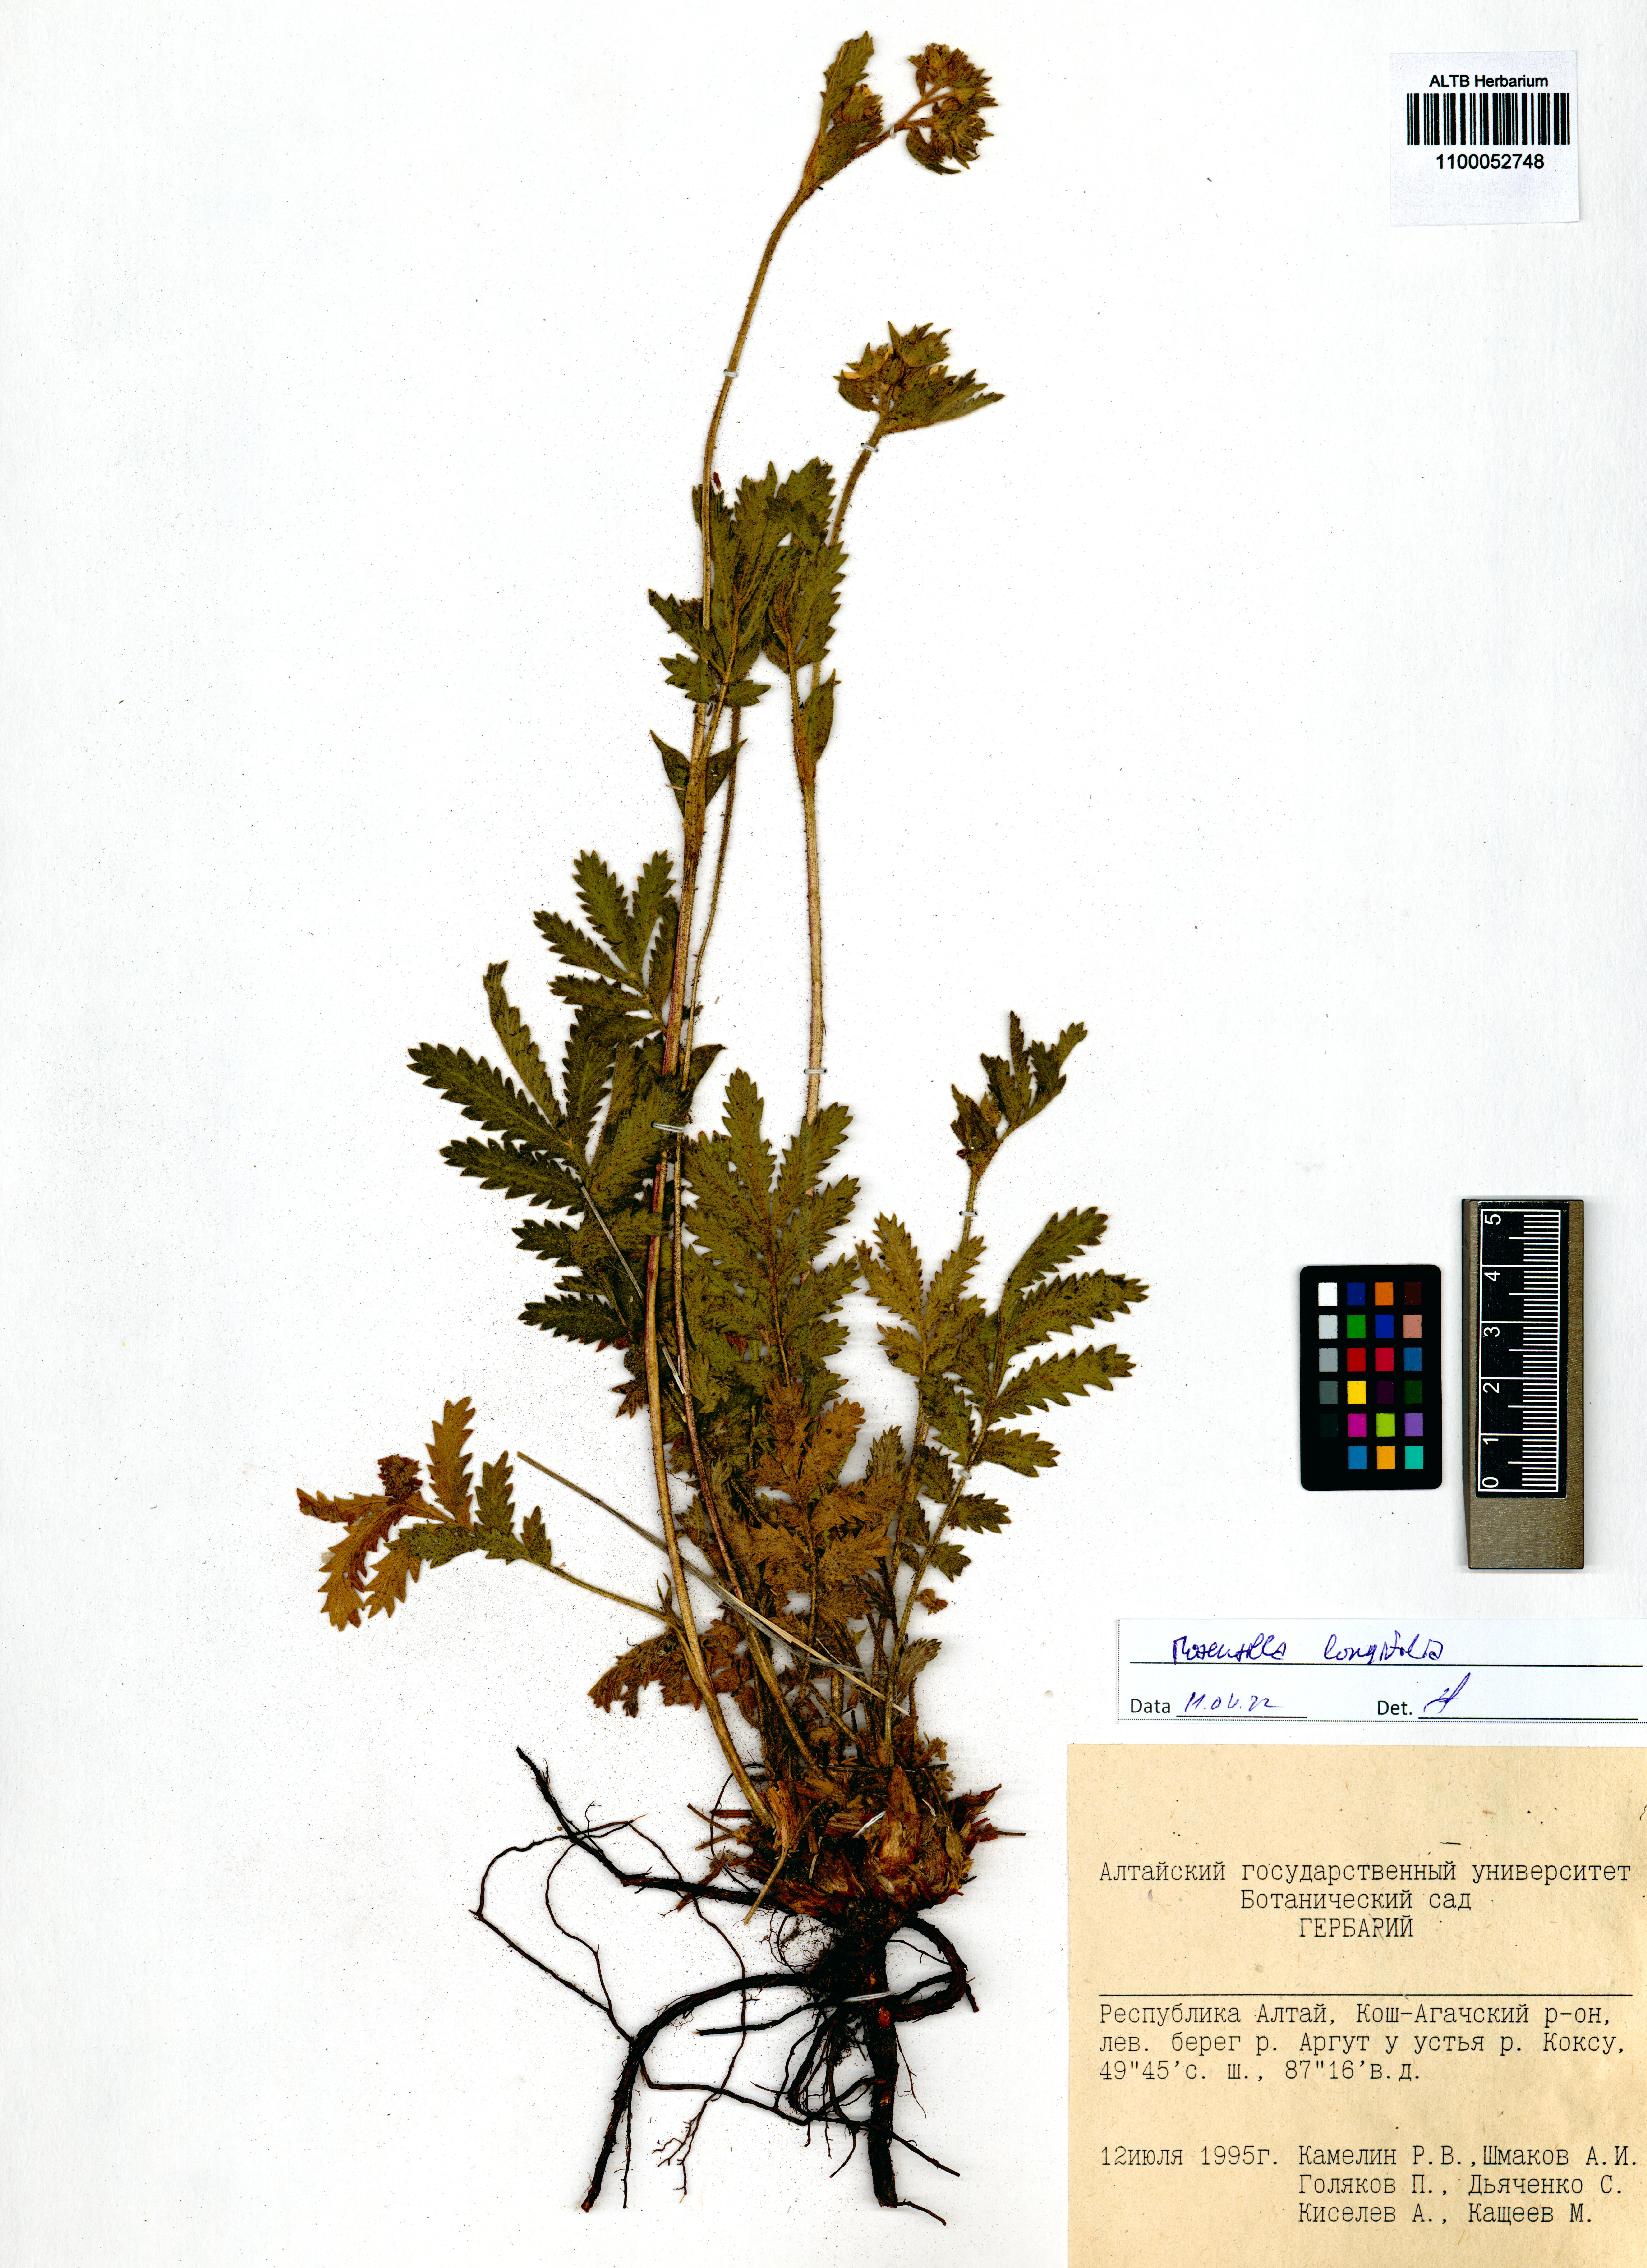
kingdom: Plantae
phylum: Tracheophyta
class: Magnoliopsida
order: Rosales
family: Rosaceae
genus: Potentilla
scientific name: Potentilla longifolia
